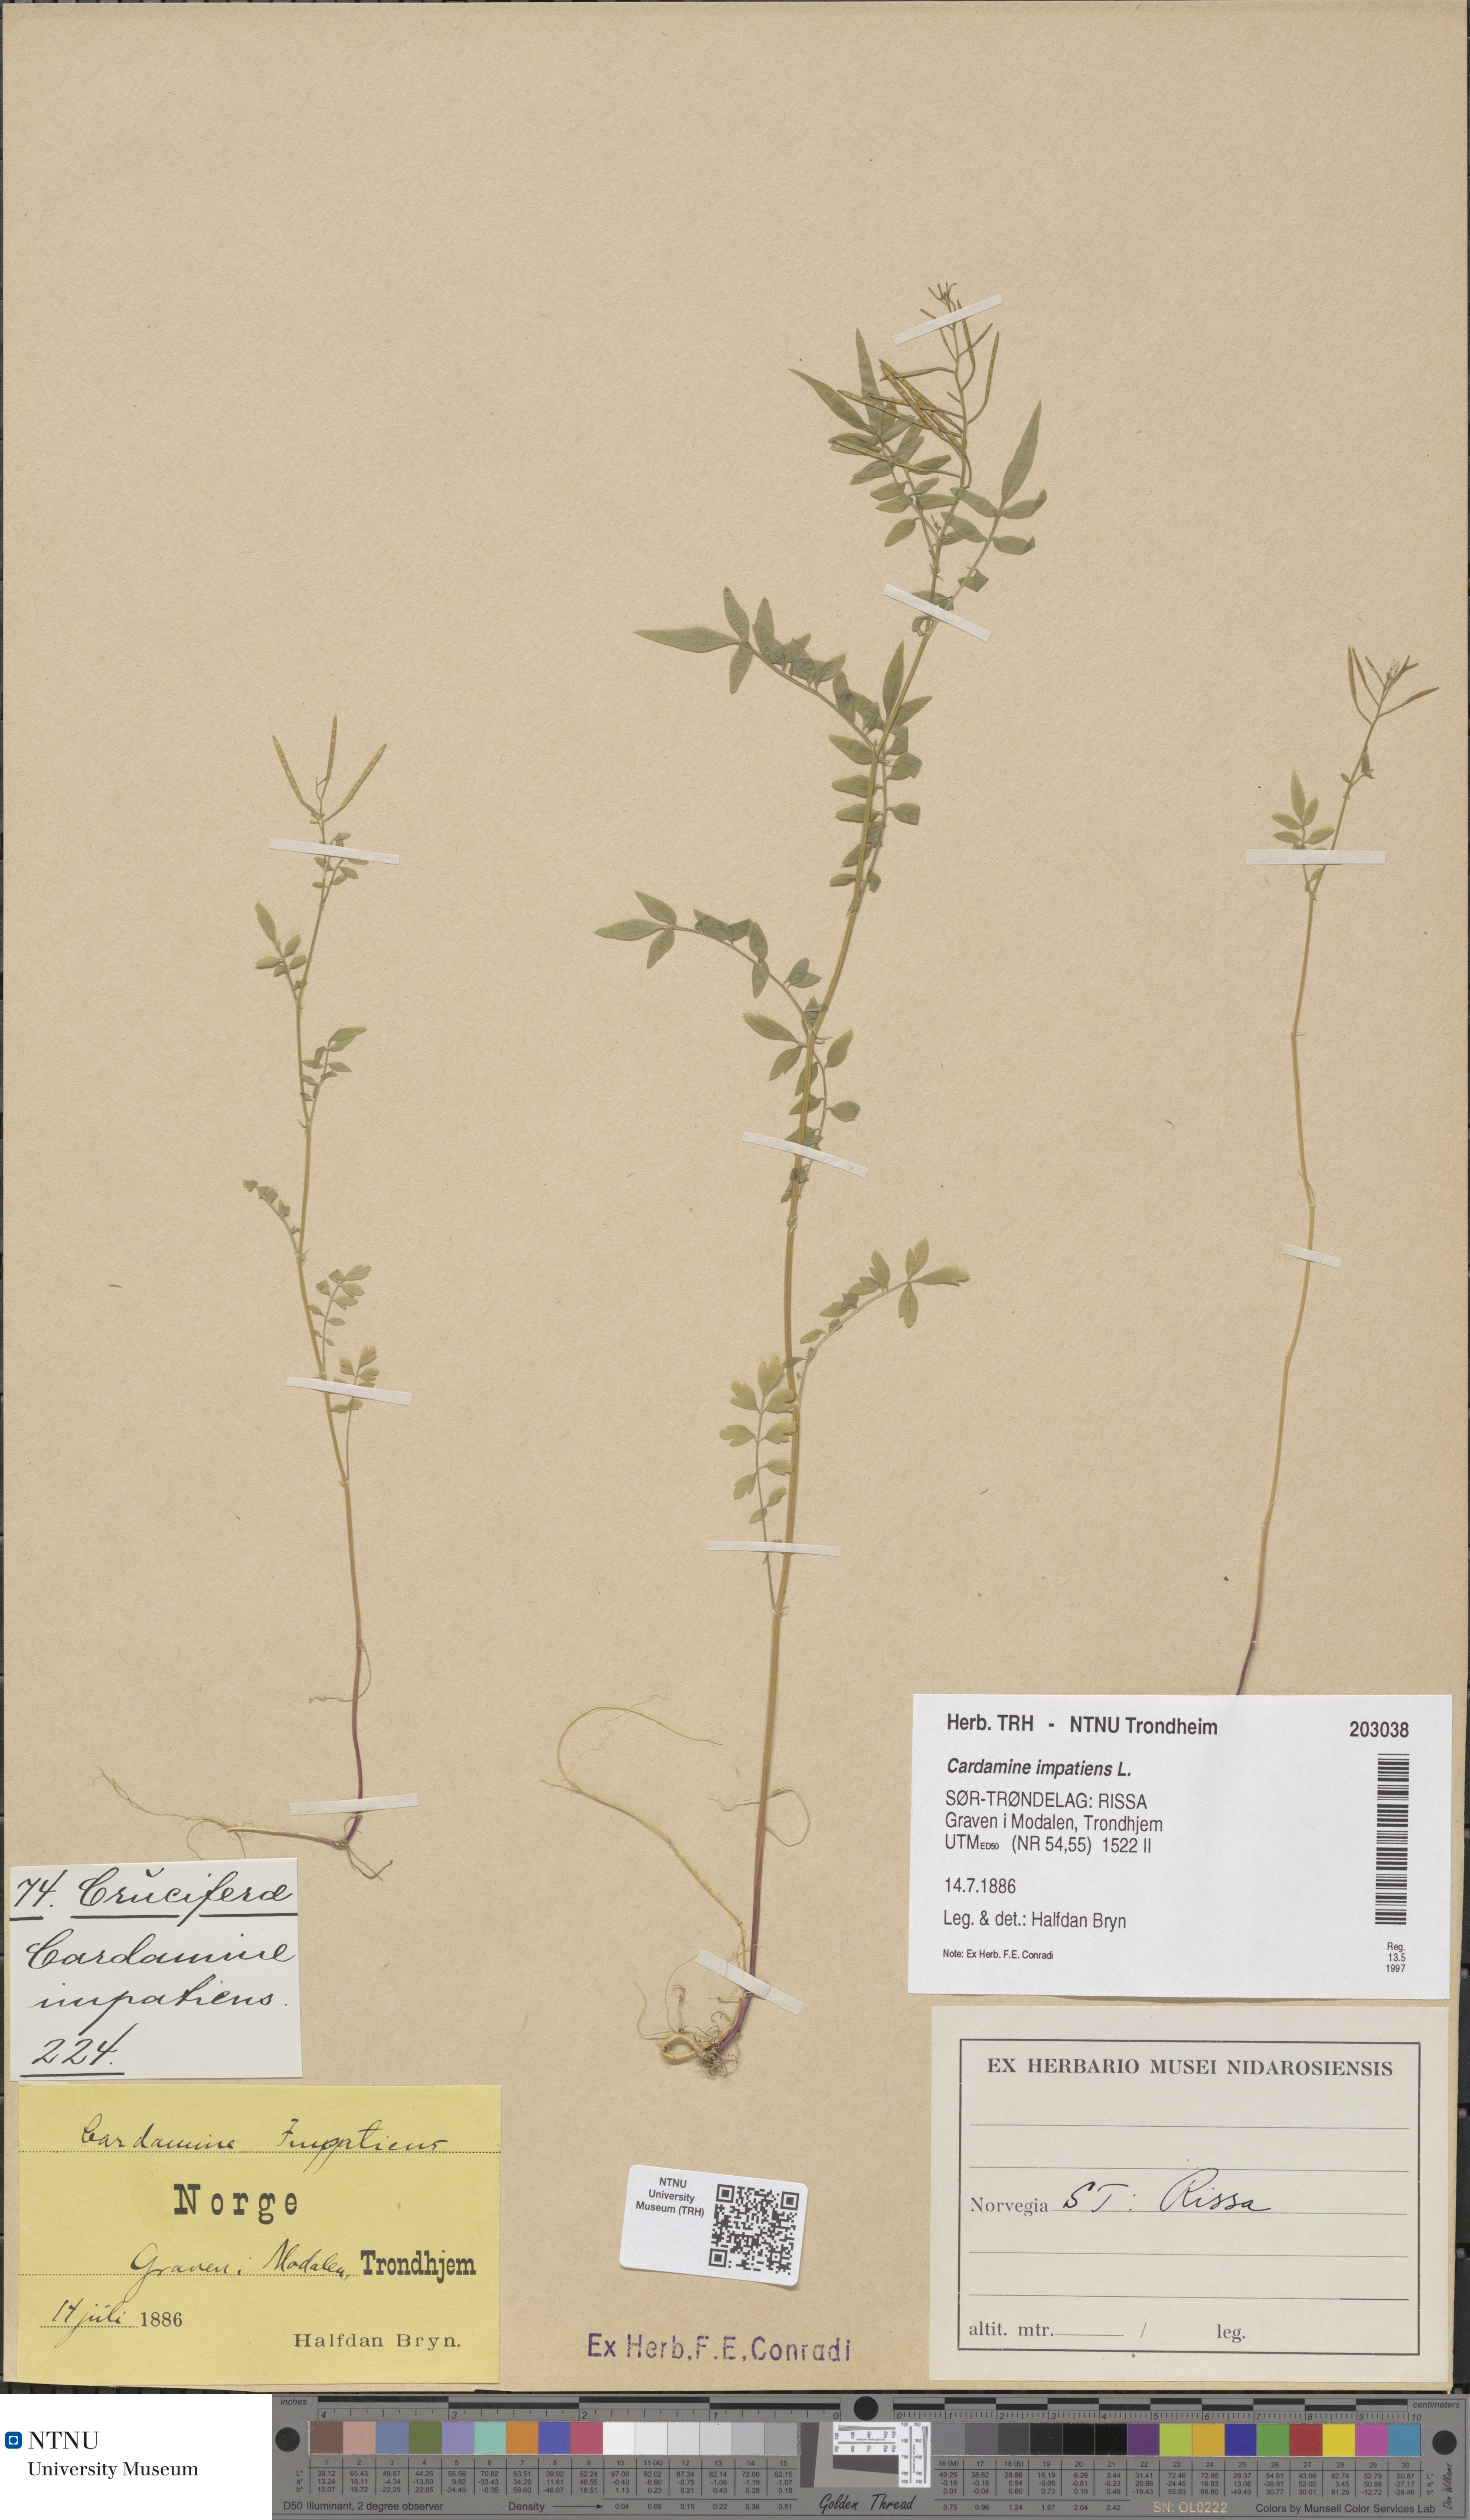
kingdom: Plantae
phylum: Tracheophyta
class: Magnoliopsida
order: Brassicales
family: Brassicaceae
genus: Cardamine
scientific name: Cardamine impatiens
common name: Narrow-leaved bitter-cress
